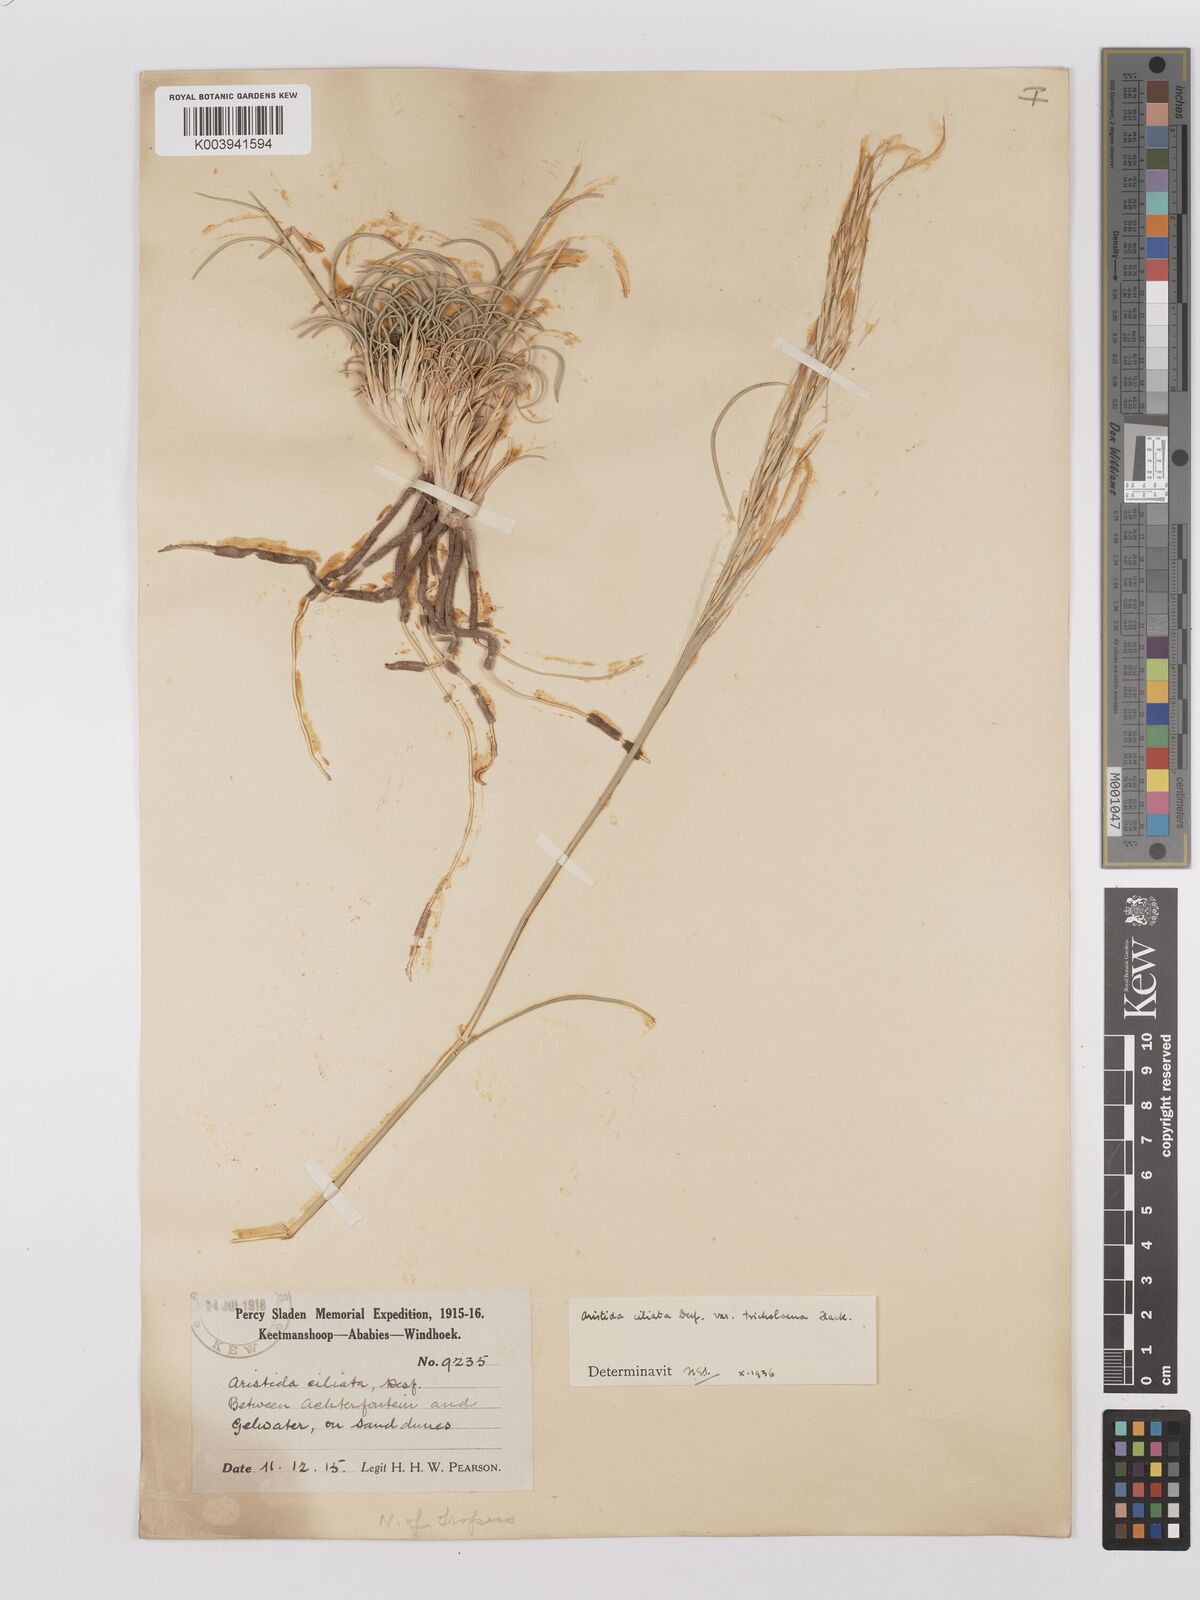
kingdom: Plantae
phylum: Tracheophyta
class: Liliopsida
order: Poales
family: Poaceae
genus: Stipagrostis
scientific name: Stipagrostis ciliata
